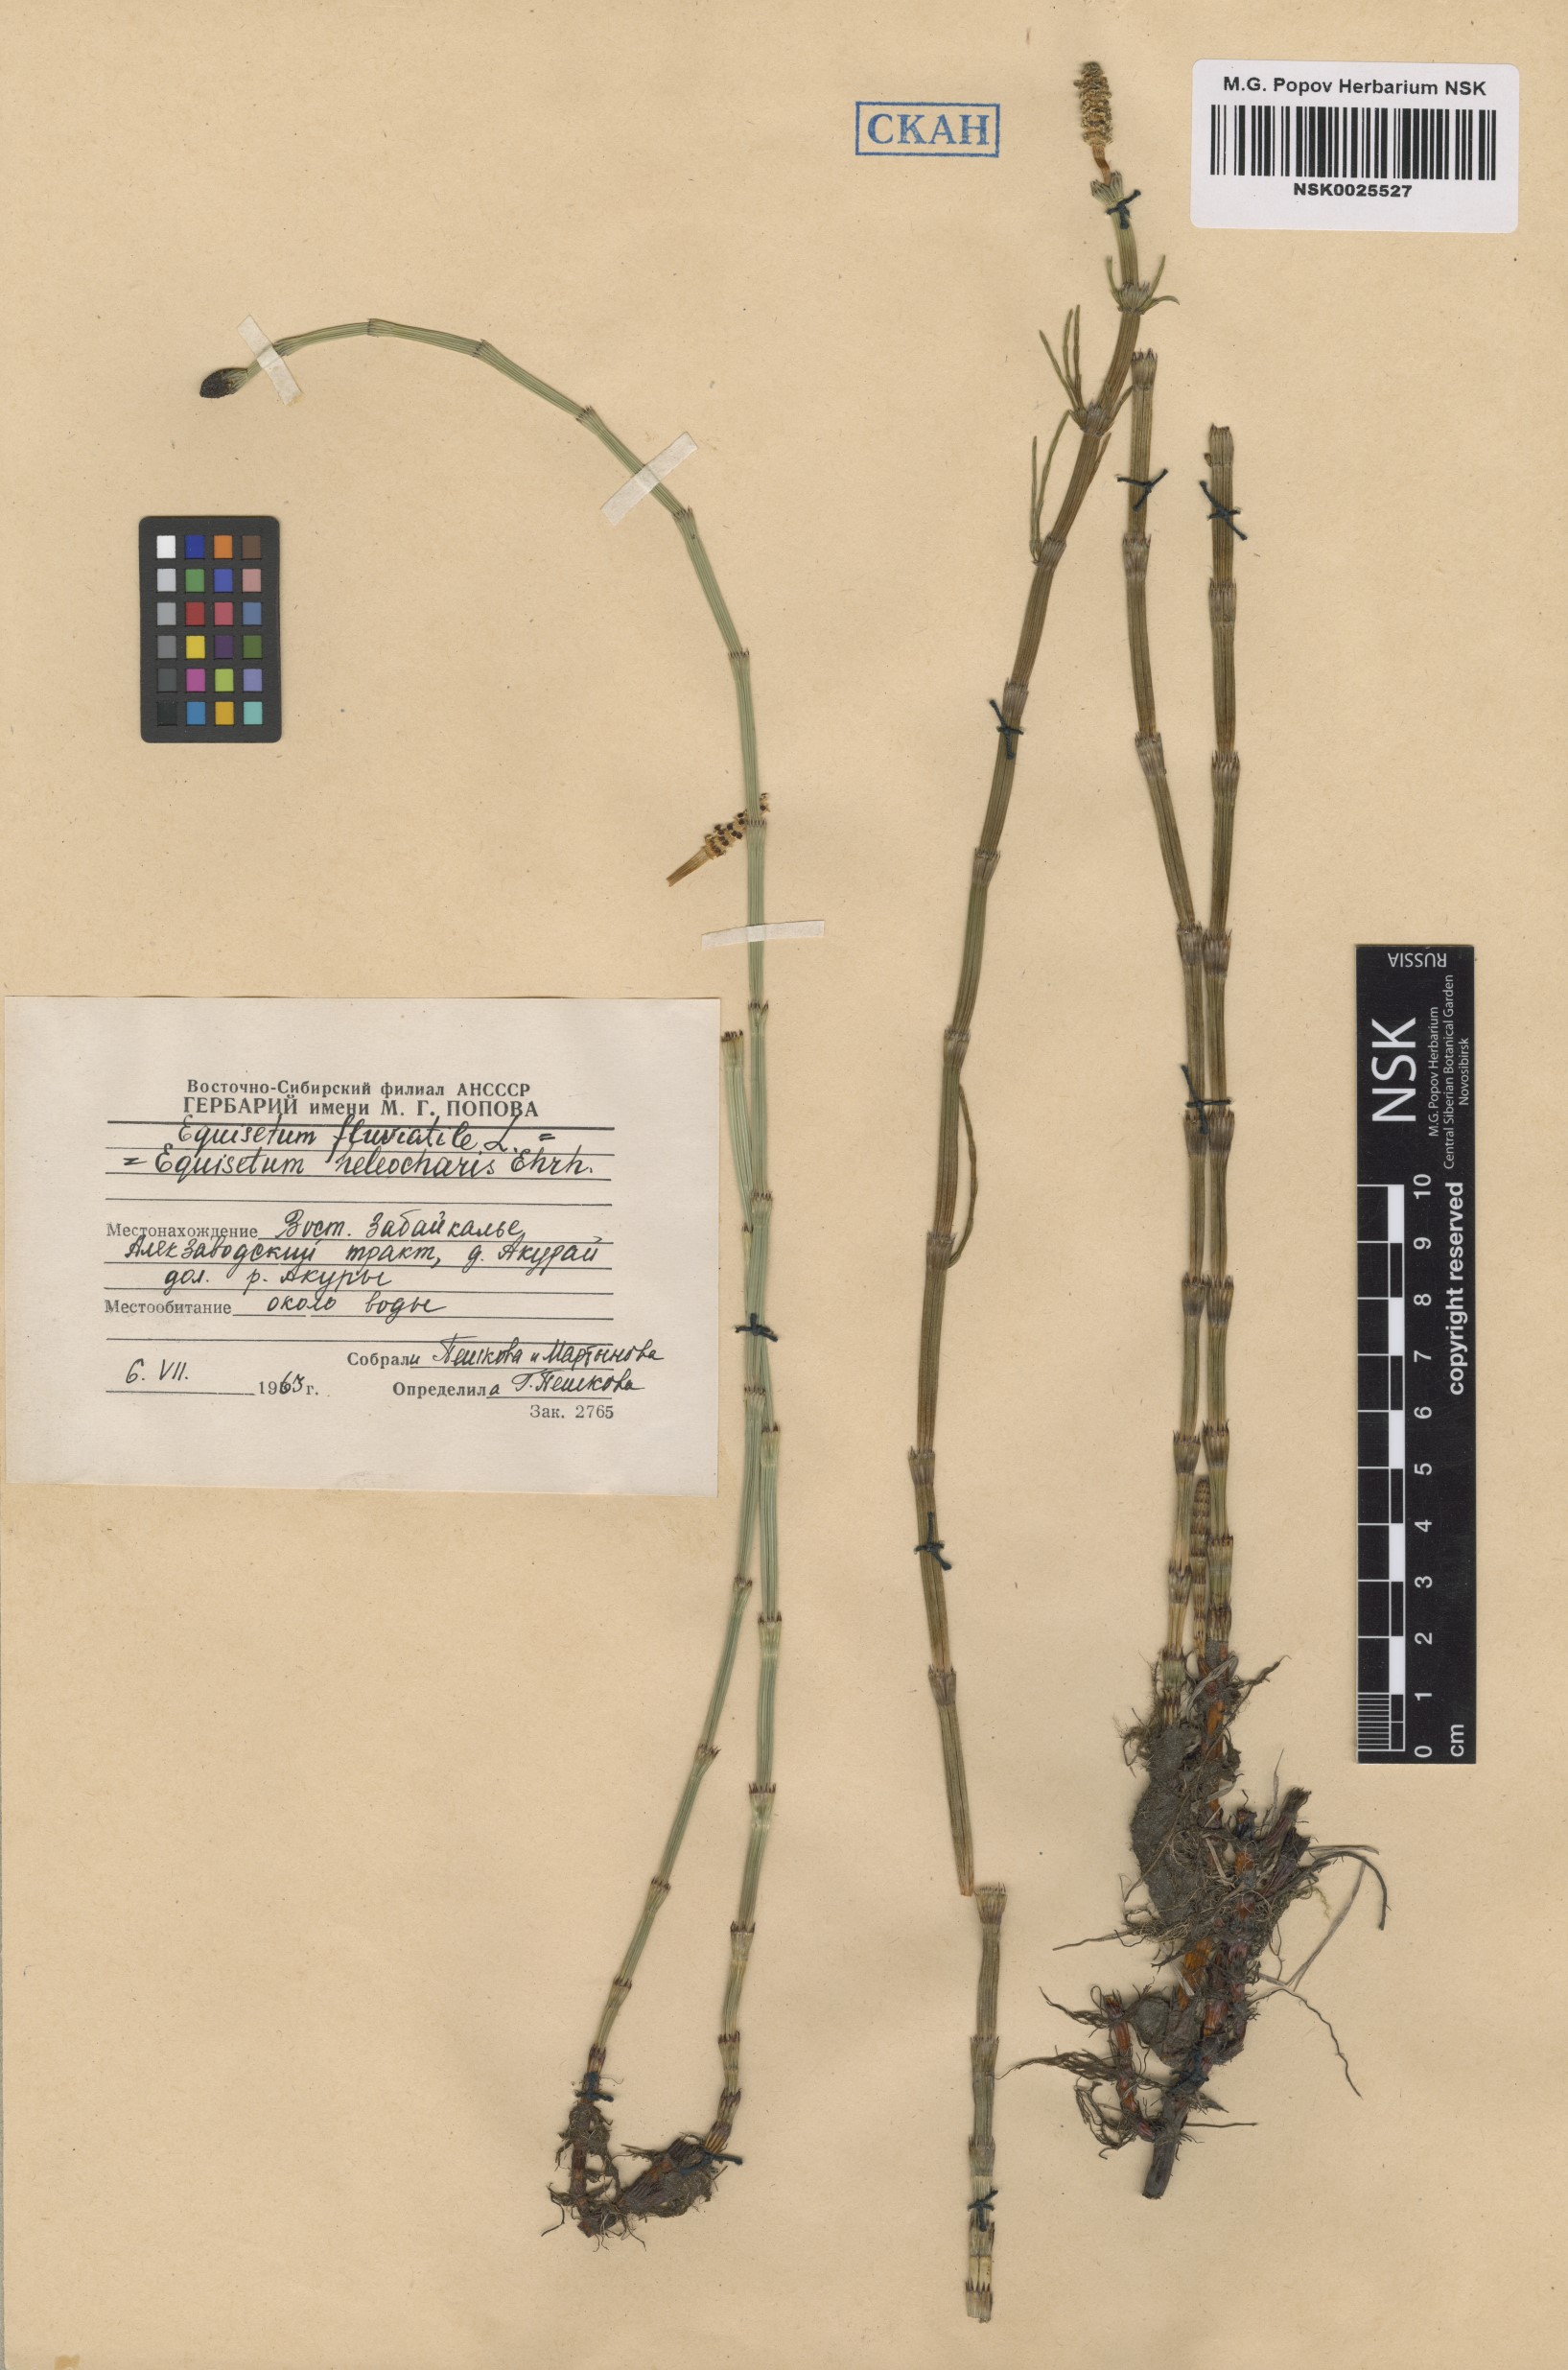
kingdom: Plantae
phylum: Tracheophyta
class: Polypodiopsida
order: Equisetales
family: Equisetaceae
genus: Equisetum
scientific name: Equisetum fluviatile
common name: Water horsetail
